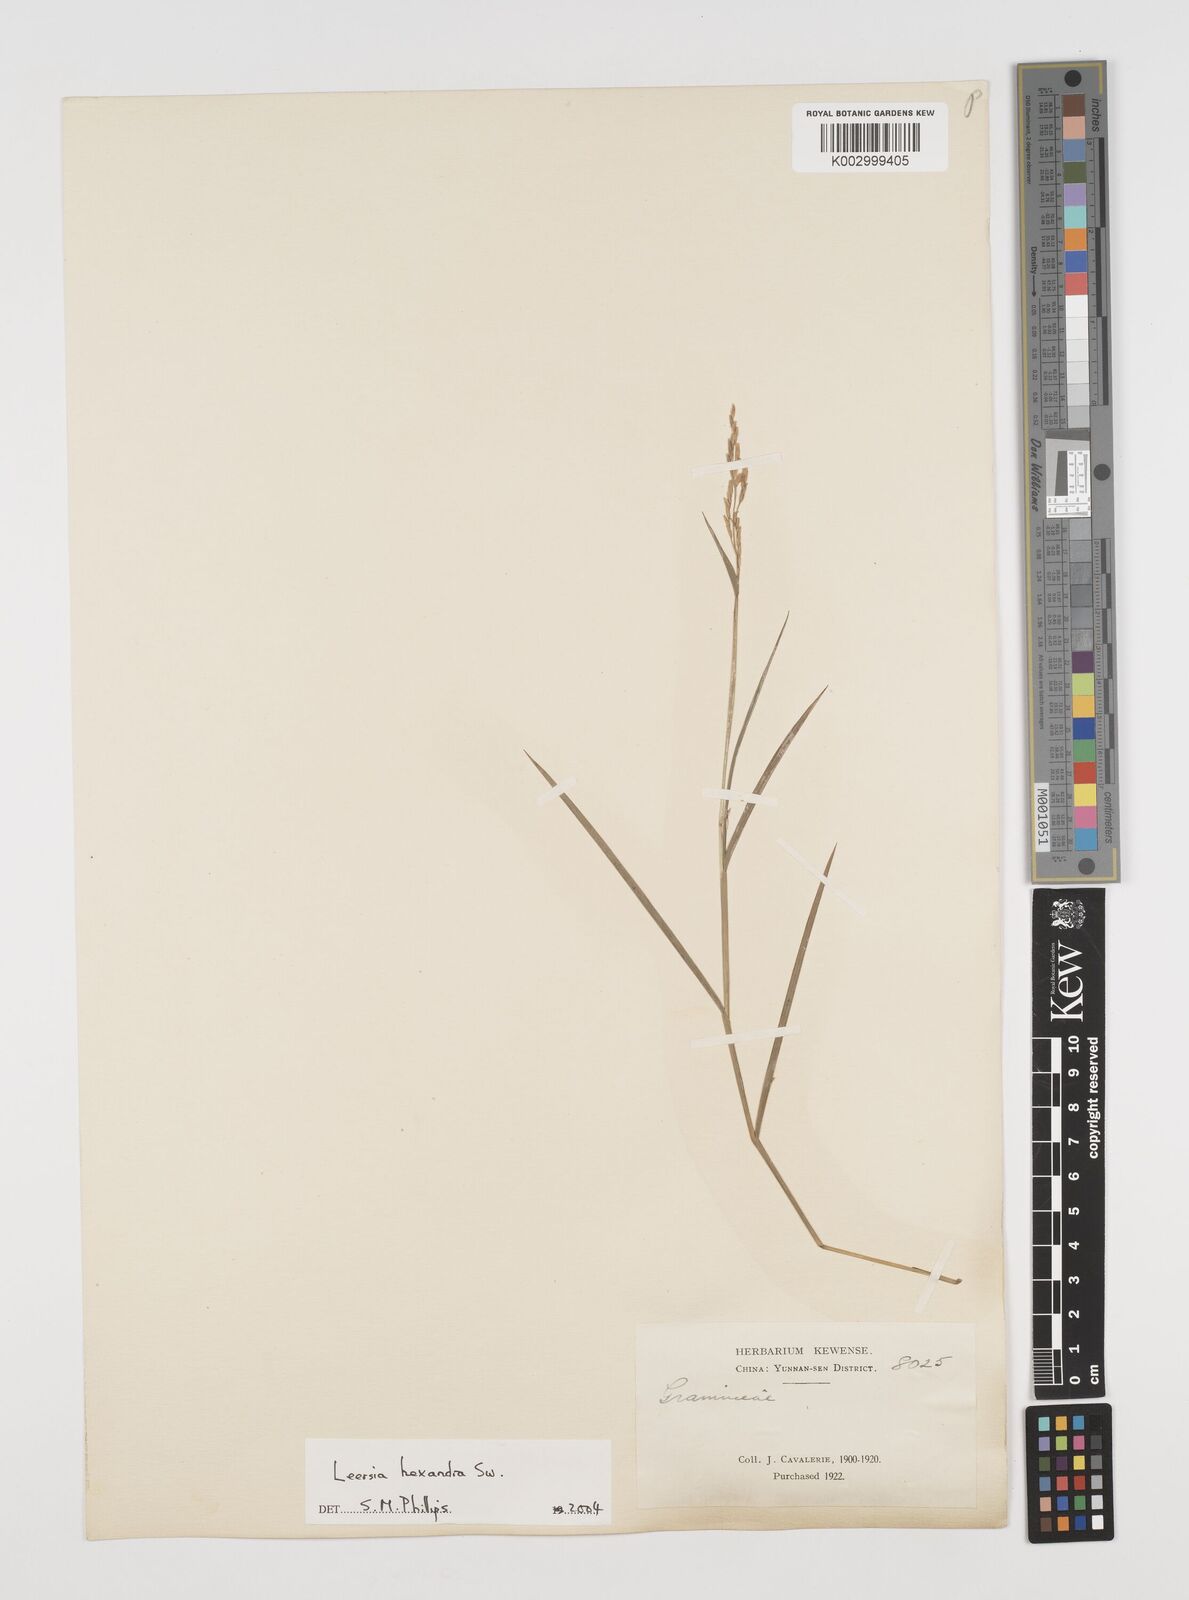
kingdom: Plantae
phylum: Tracheophyta
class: Liliopsida
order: Poales
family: Poaceae
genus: Leersia
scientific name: Leersia hexandra
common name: Southern cut grass
